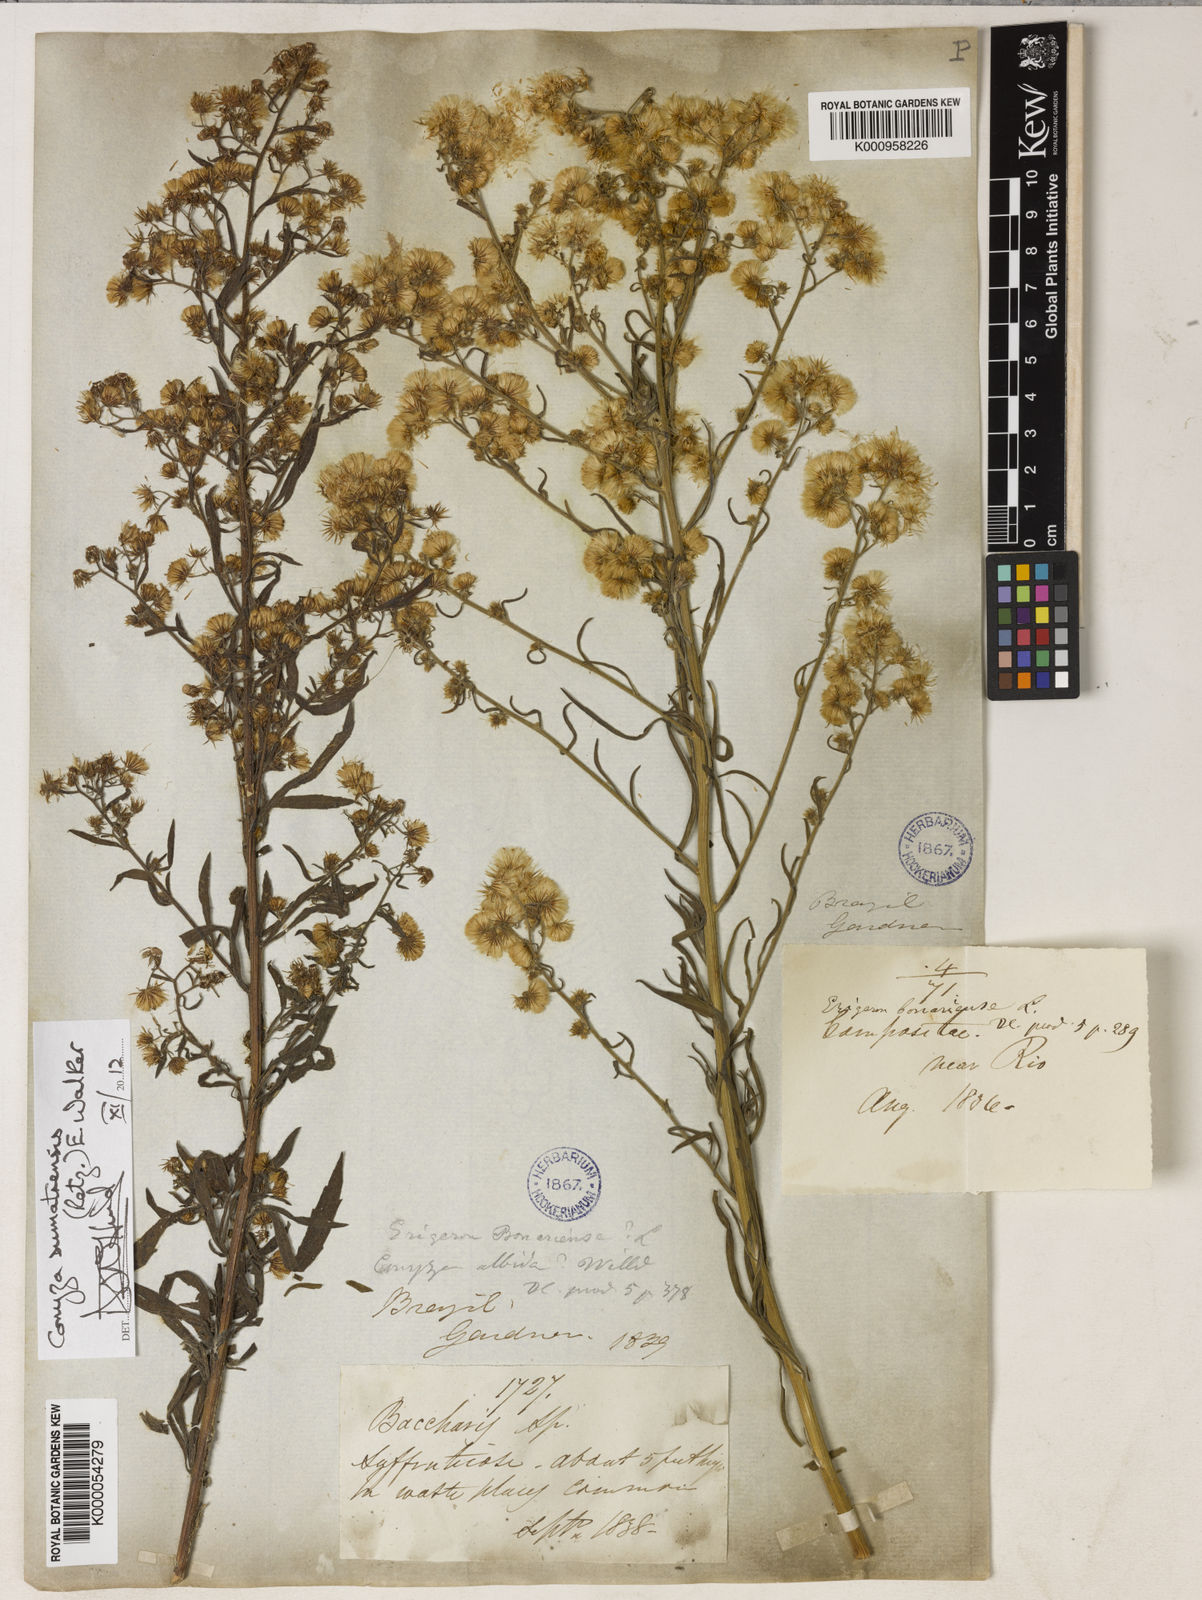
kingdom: Plantae
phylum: Tracheophyta
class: Magnoliopsida
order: Asterales
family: Asteraceae
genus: Erigeron
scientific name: Erigeron sumatrensis
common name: Daisy
